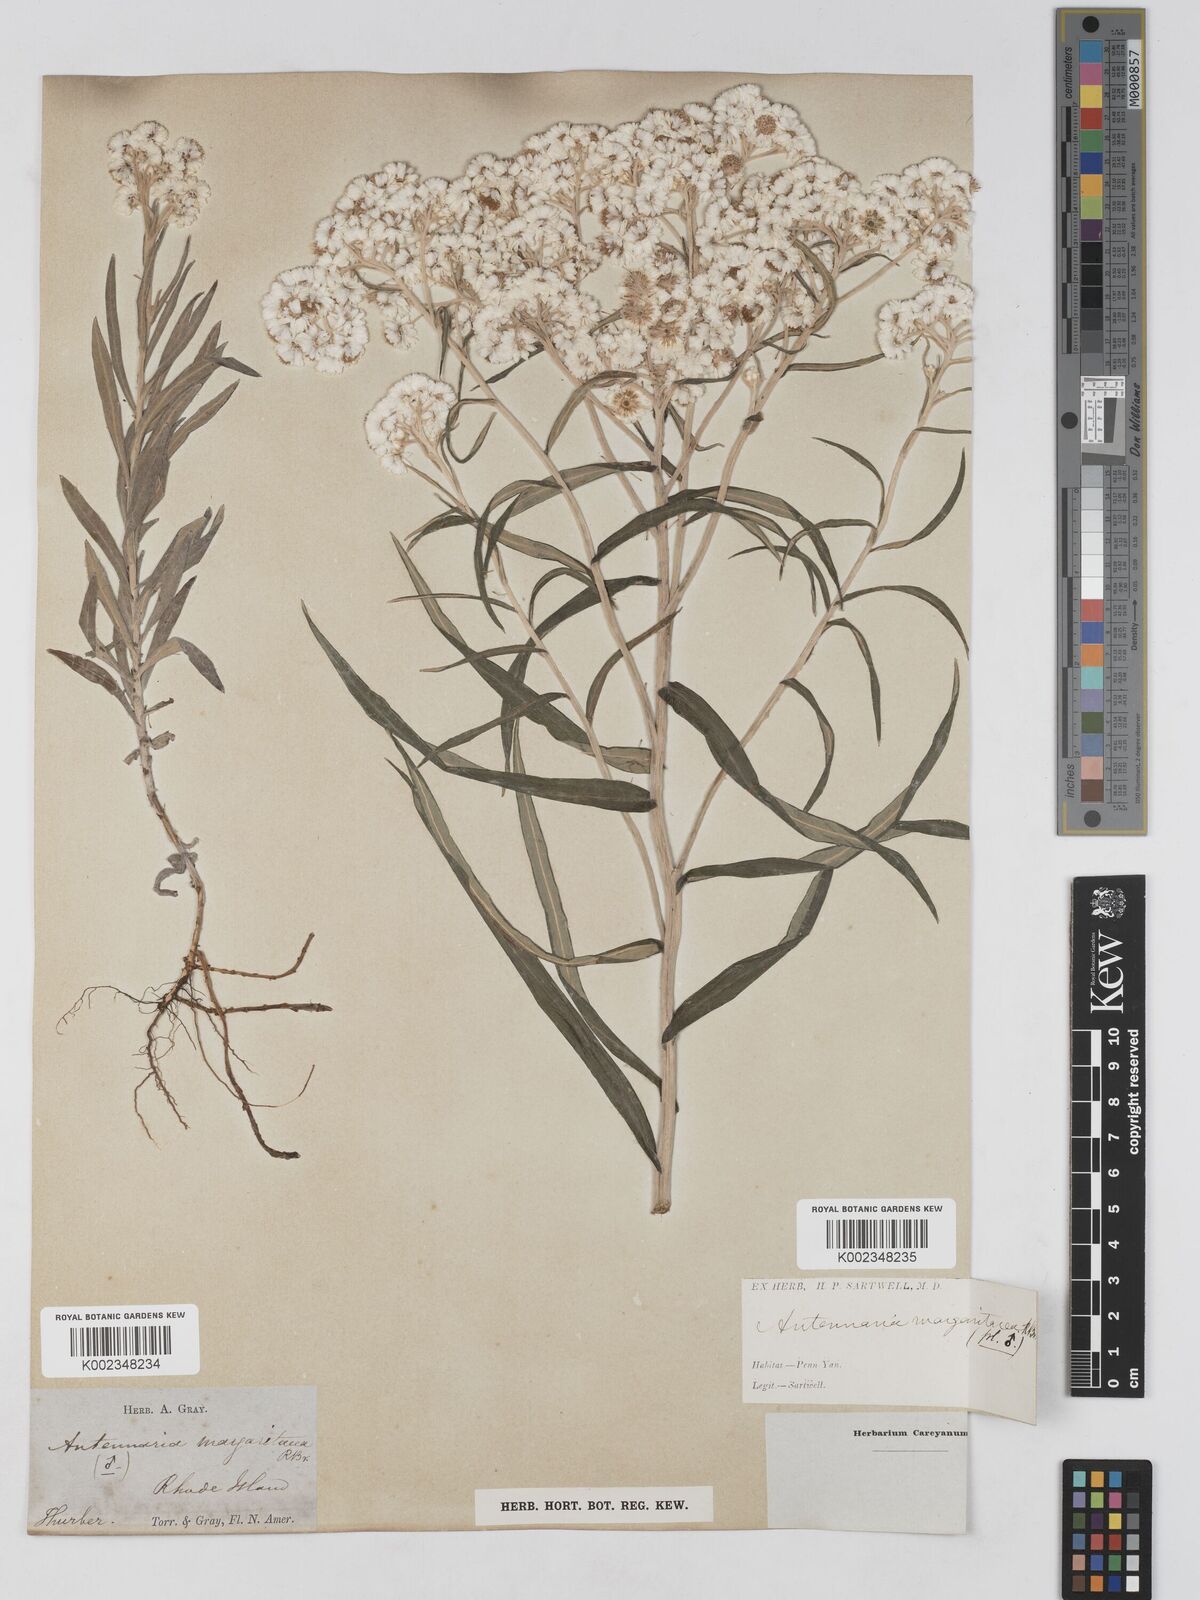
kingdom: Plantae
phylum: Tracheophyta
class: Magnoliopsida
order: Asterales
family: Asteraceae
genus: Anaphalis
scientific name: Anaphalis margaritacea
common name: Pearly everlasting
